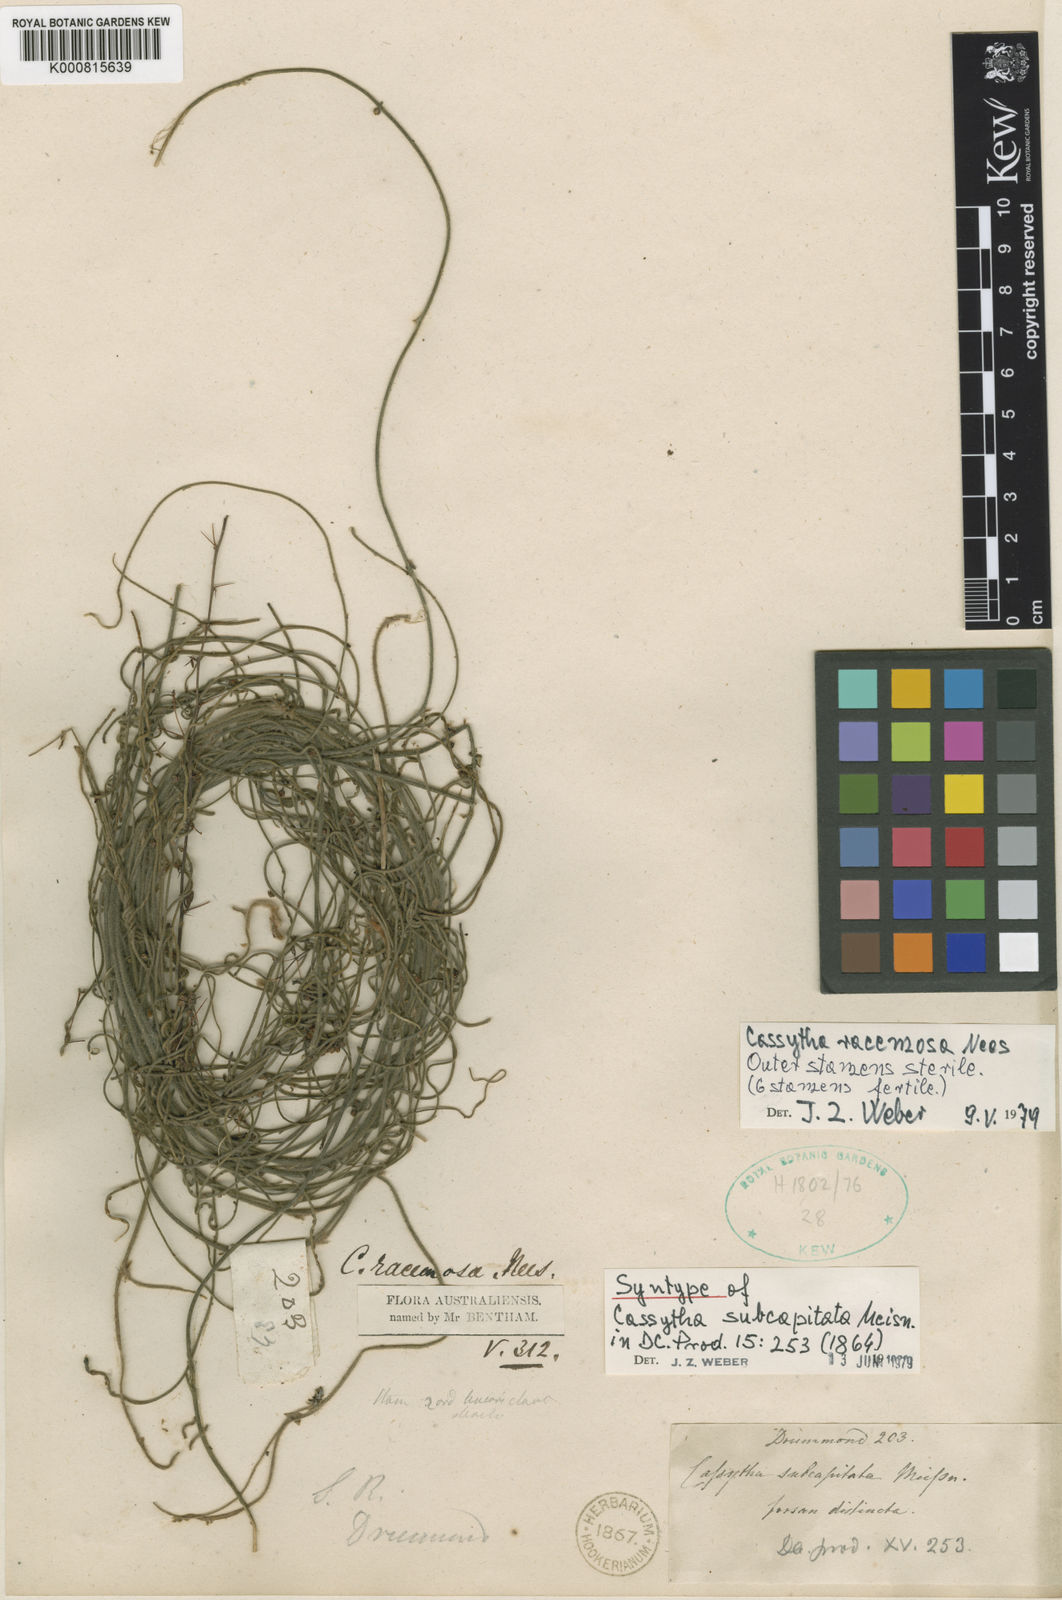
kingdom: Plantae
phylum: Tracheophyta
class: Magnoliopsida
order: Laurales
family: Lauraceae
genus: Cassytha
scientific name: Cassytha racemosa
